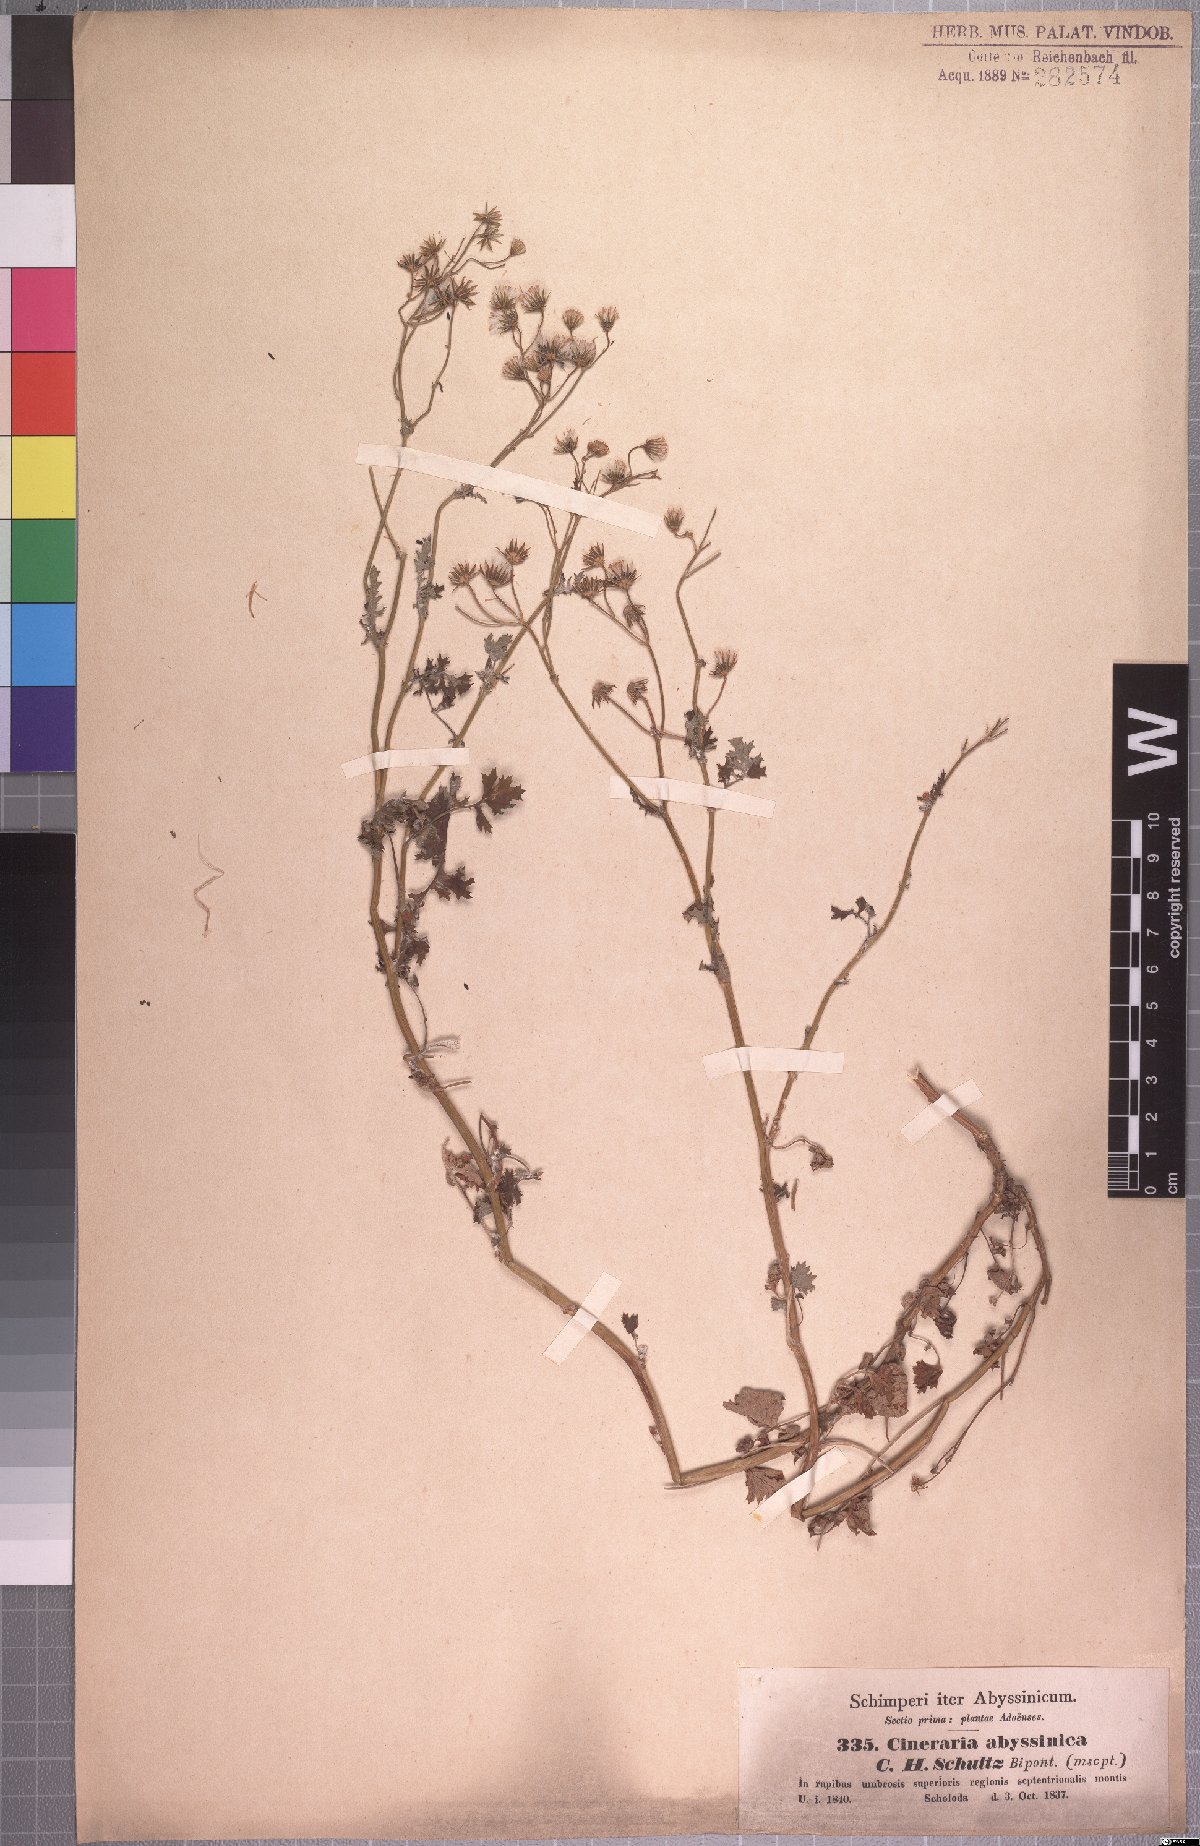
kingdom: Plantae
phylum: Tracheophyta
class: Magnoliopsida
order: Asterales
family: Asteraceae
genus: Cineraria
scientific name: Cineraria abyssinica
